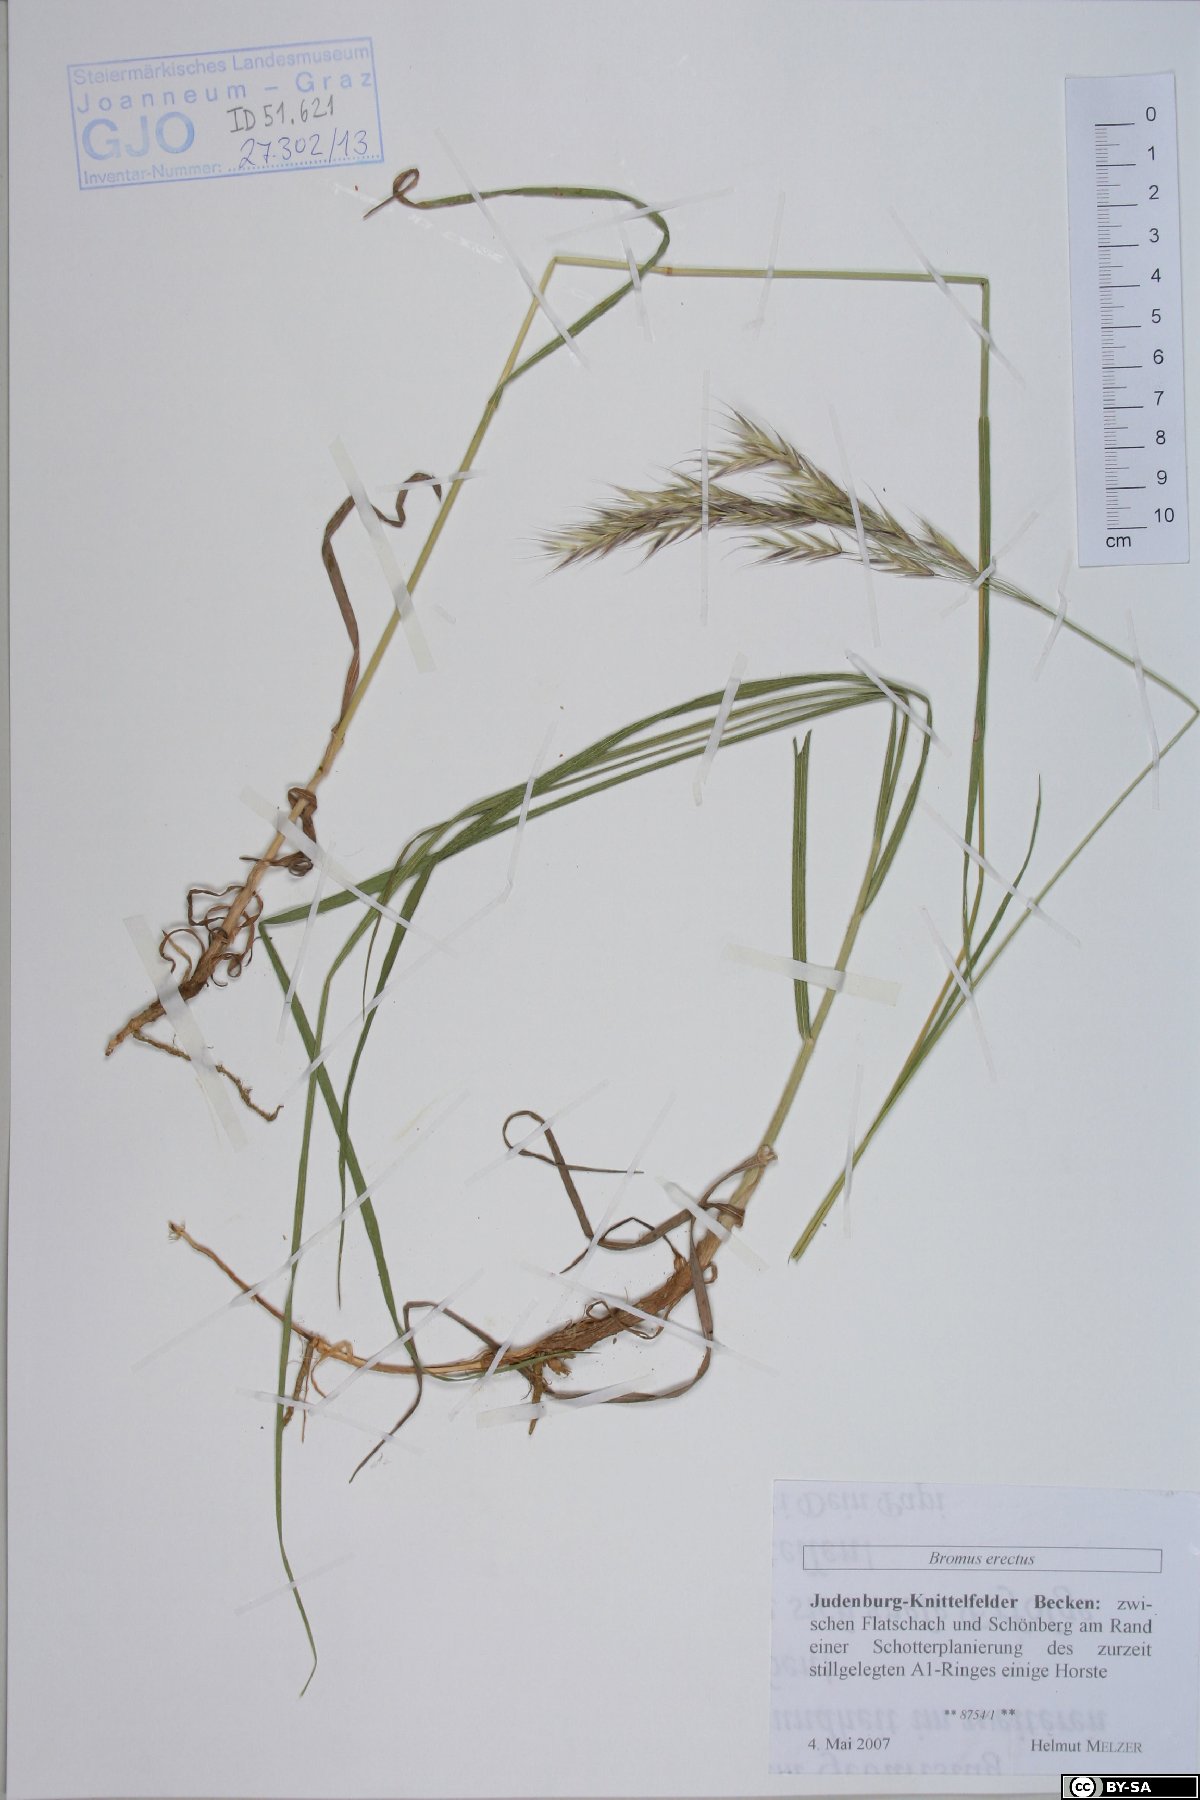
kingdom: Plantae
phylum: Tracheophyta
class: Liliopsida
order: Poales
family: Poaceae
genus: Bromus
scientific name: Bromus erectus
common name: Erect brome
